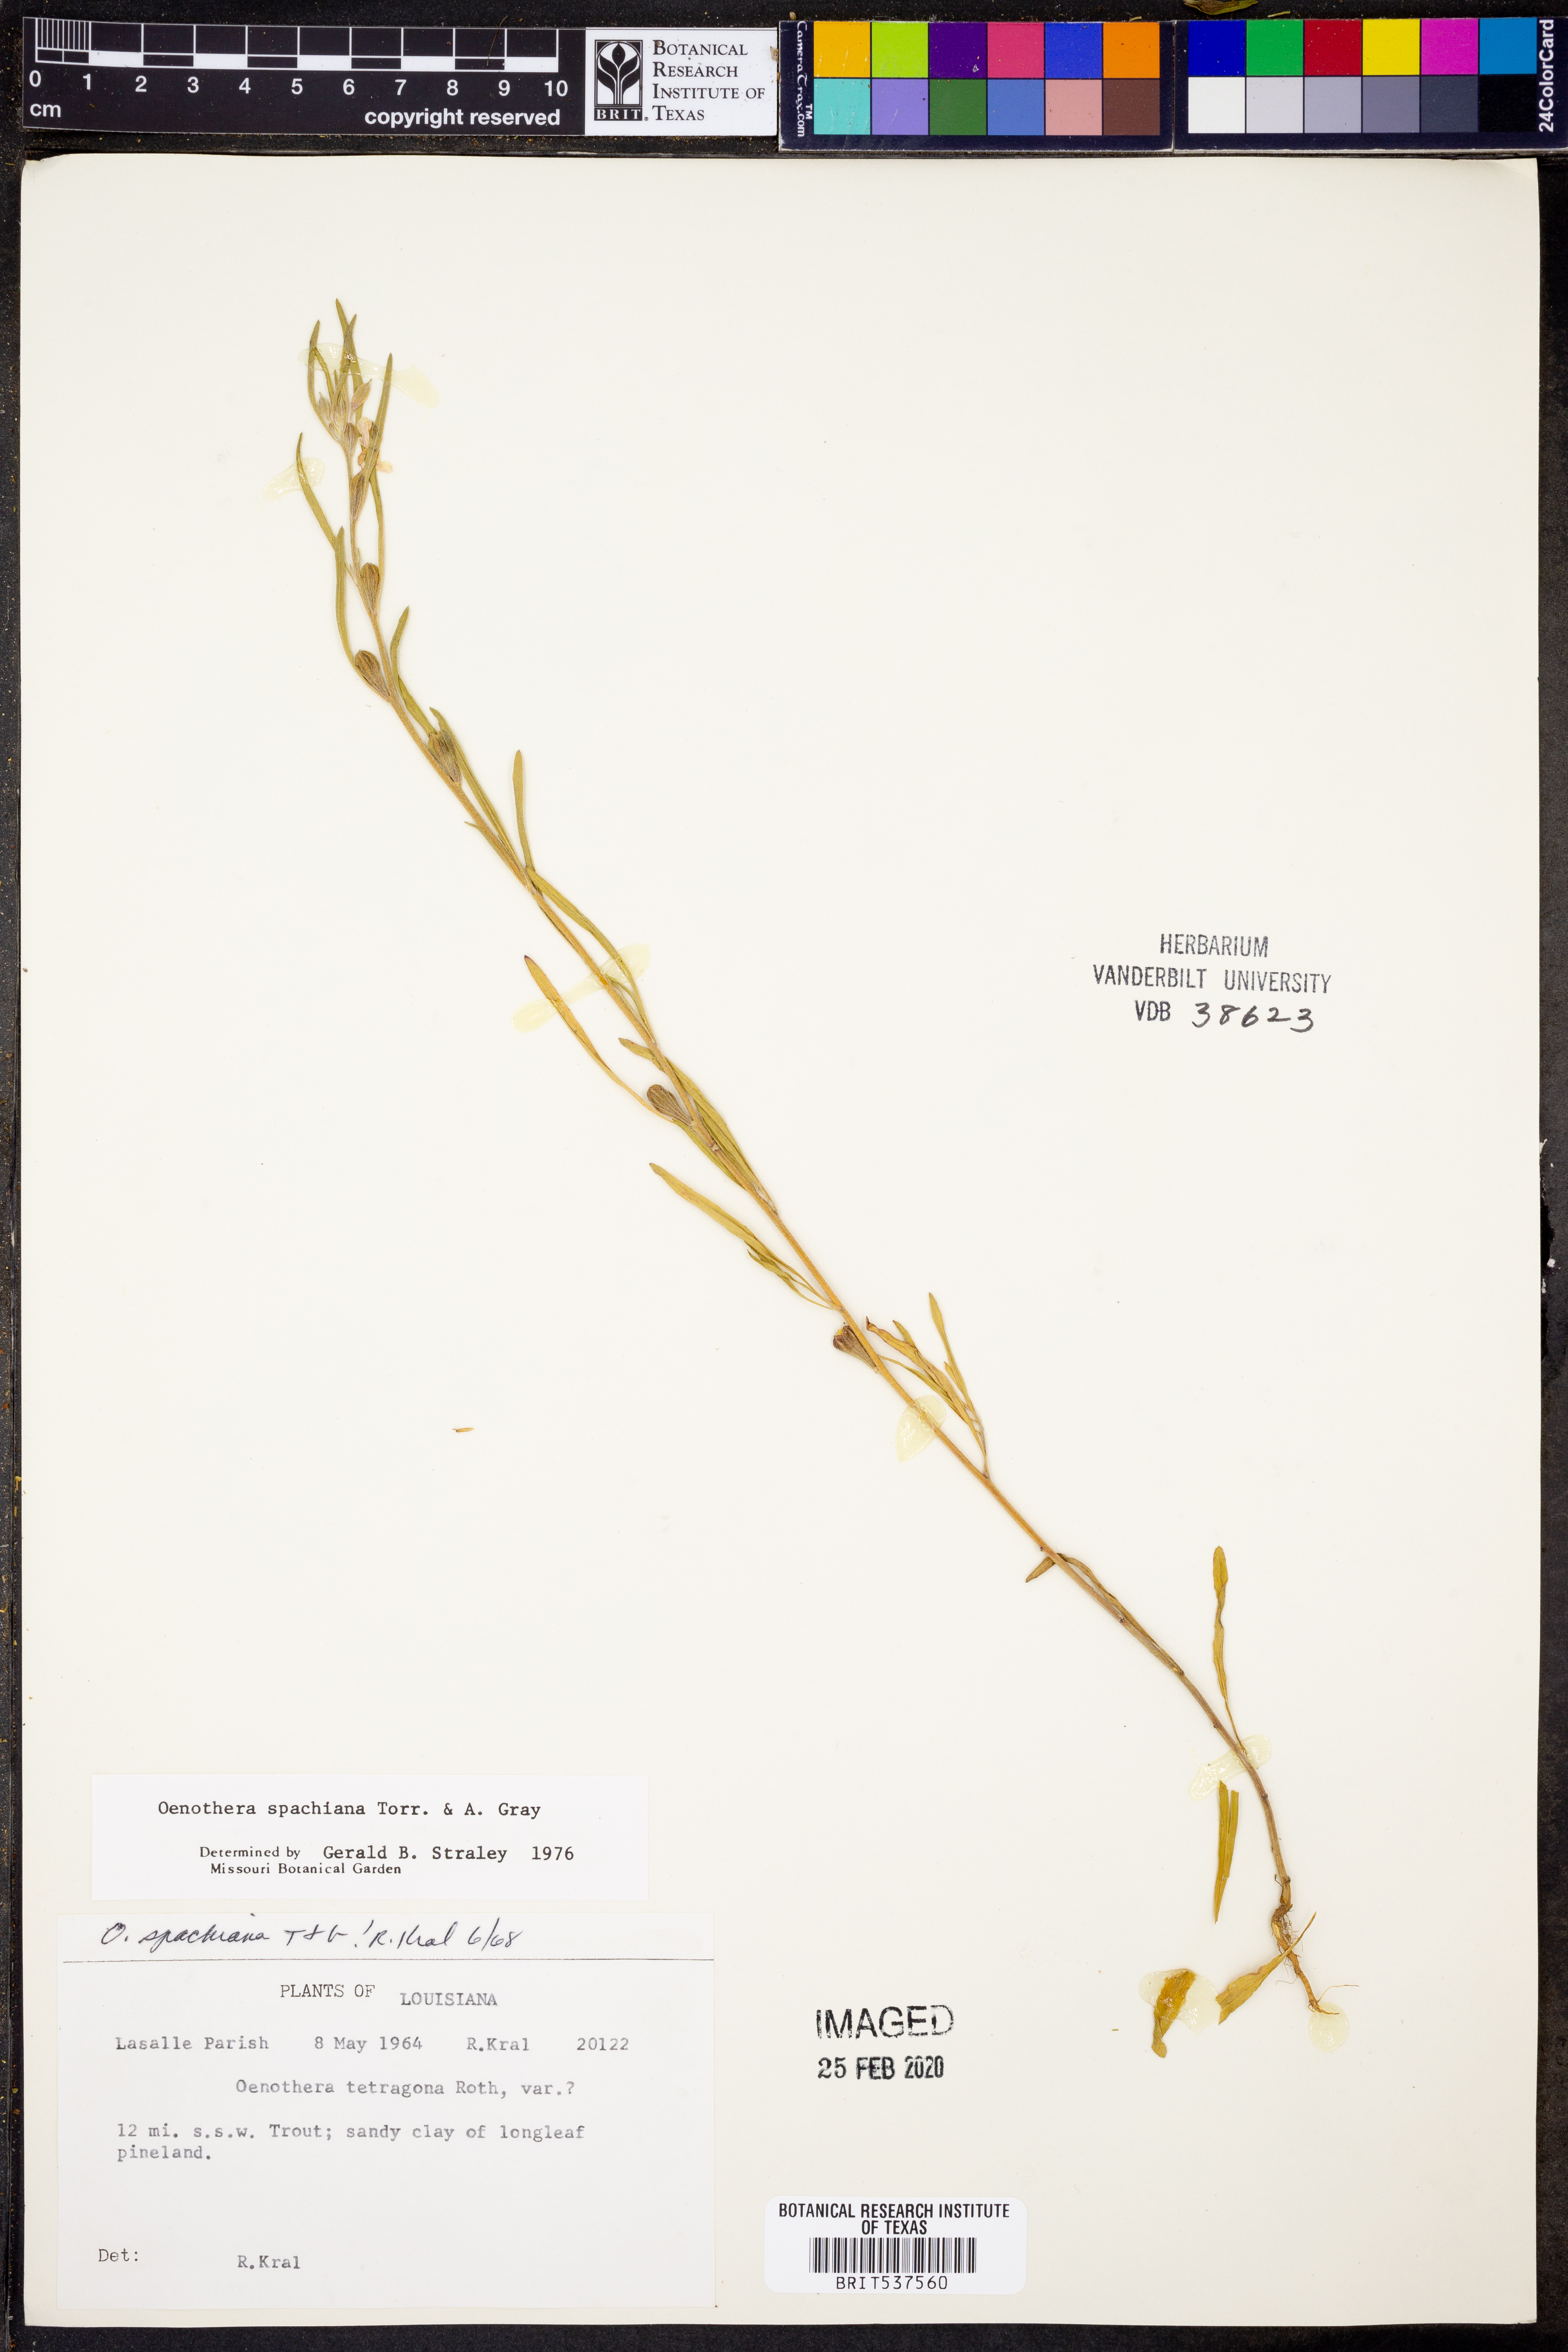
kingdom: Plantae
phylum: Tracheophyta
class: Magnoliopsida
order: Myrtales
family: Onagraceae
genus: Oenothera
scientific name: Oenothera spachiana
